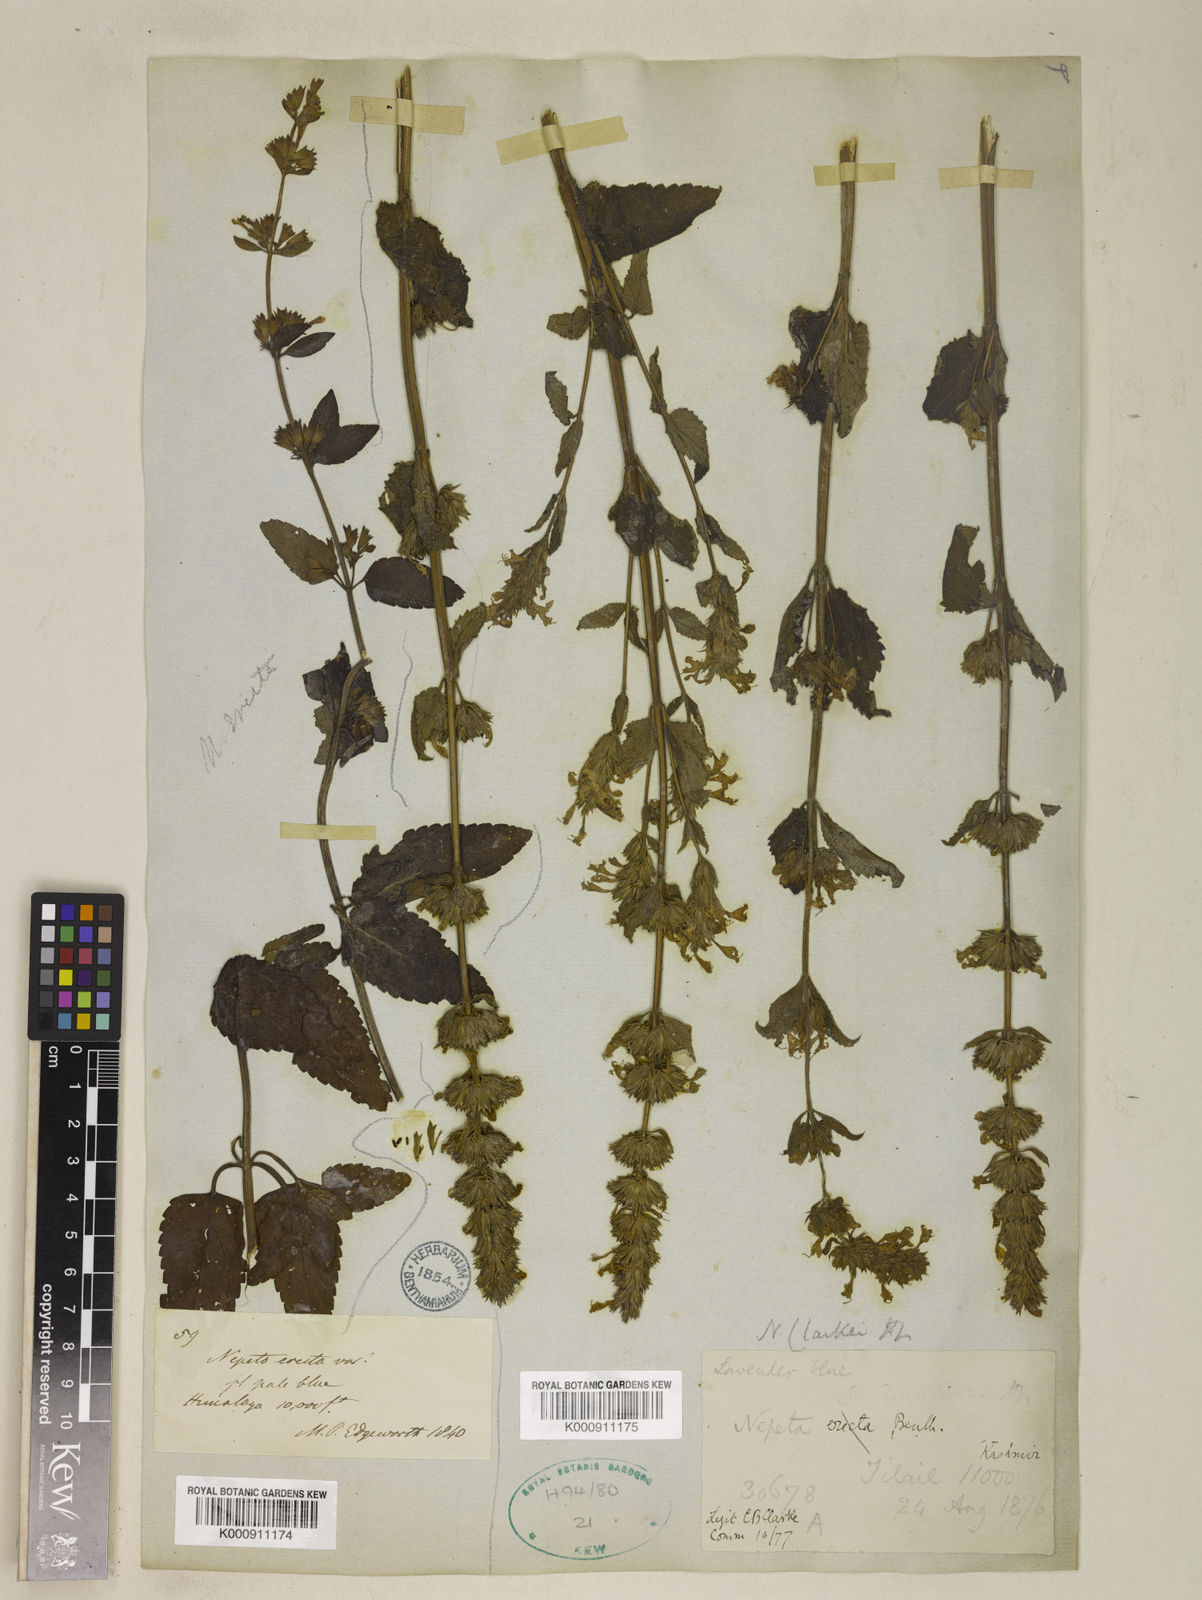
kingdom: Plantae
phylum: Tracheophyta
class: Magnoliopsida
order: Lamiales
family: Lamiaceae
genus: Nepeta
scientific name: Nepeta clarkei
